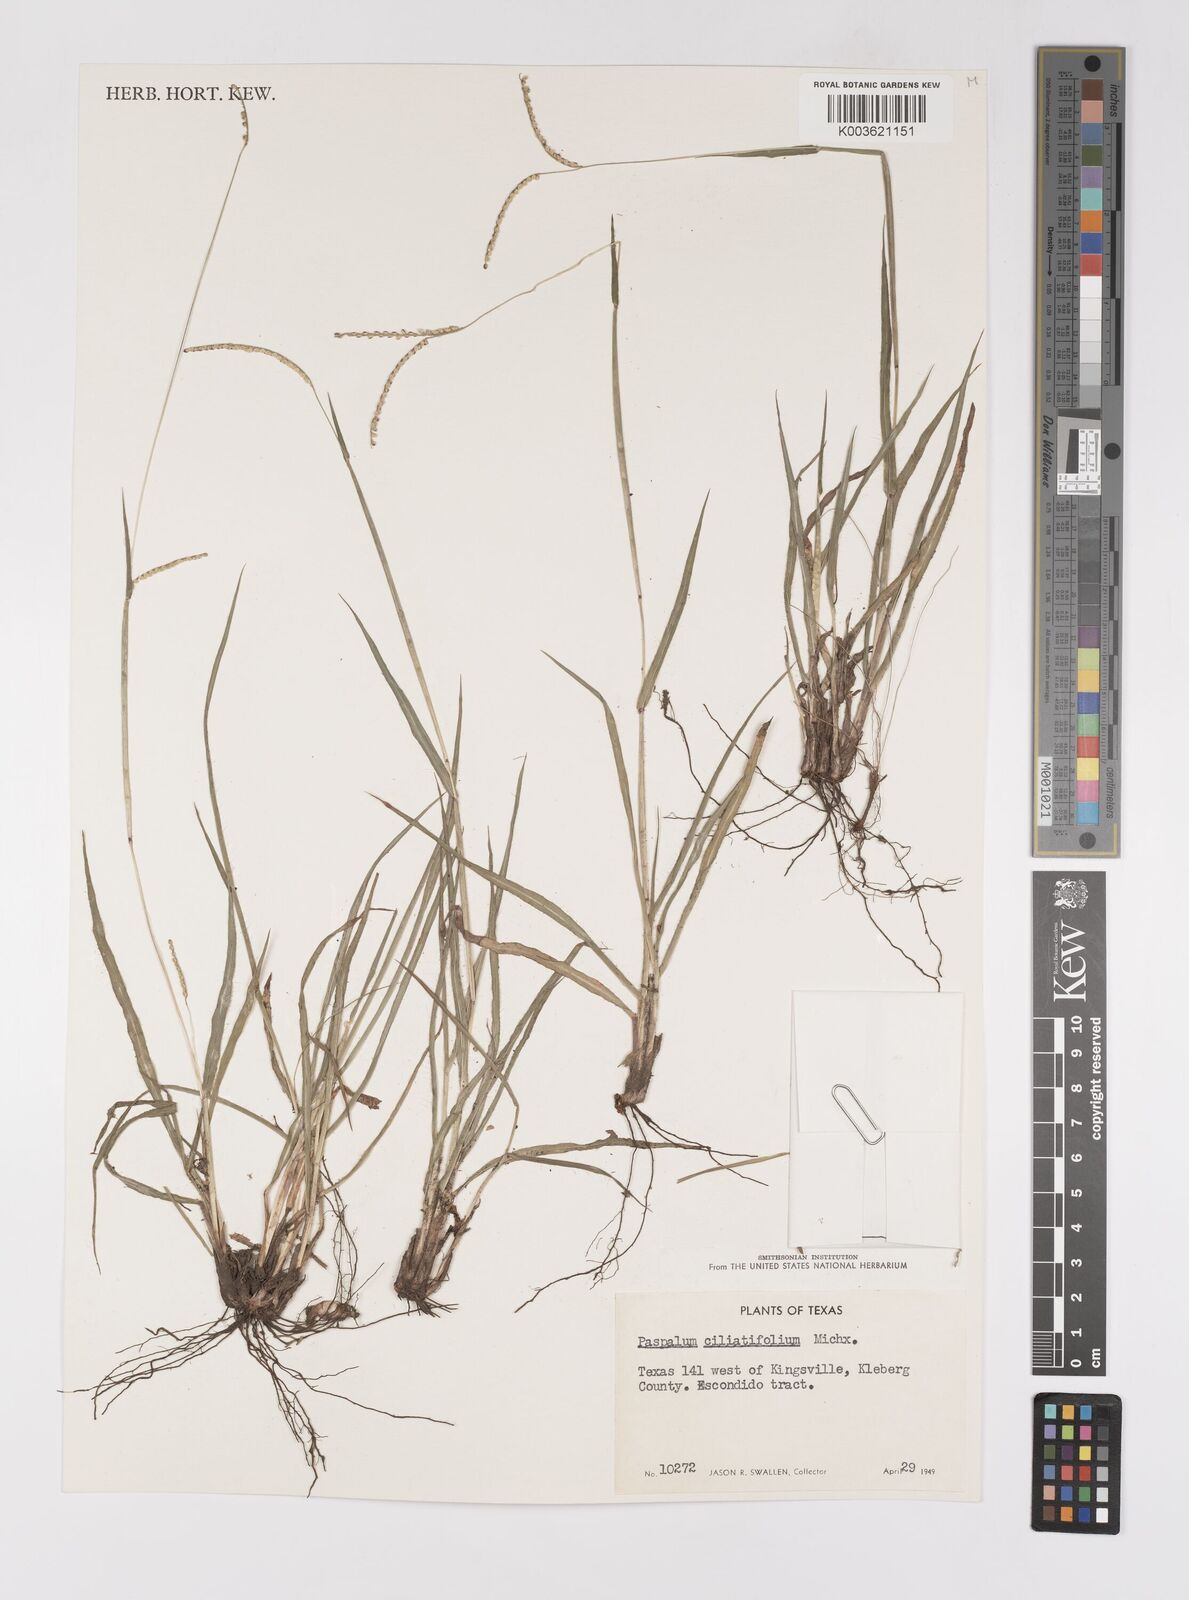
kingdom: Plantae
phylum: Tracheophyta
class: Liliopsida
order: Poales
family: Poaceae
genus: Paspalum
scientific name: Paspalum setaceum
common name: Slender paspalum
